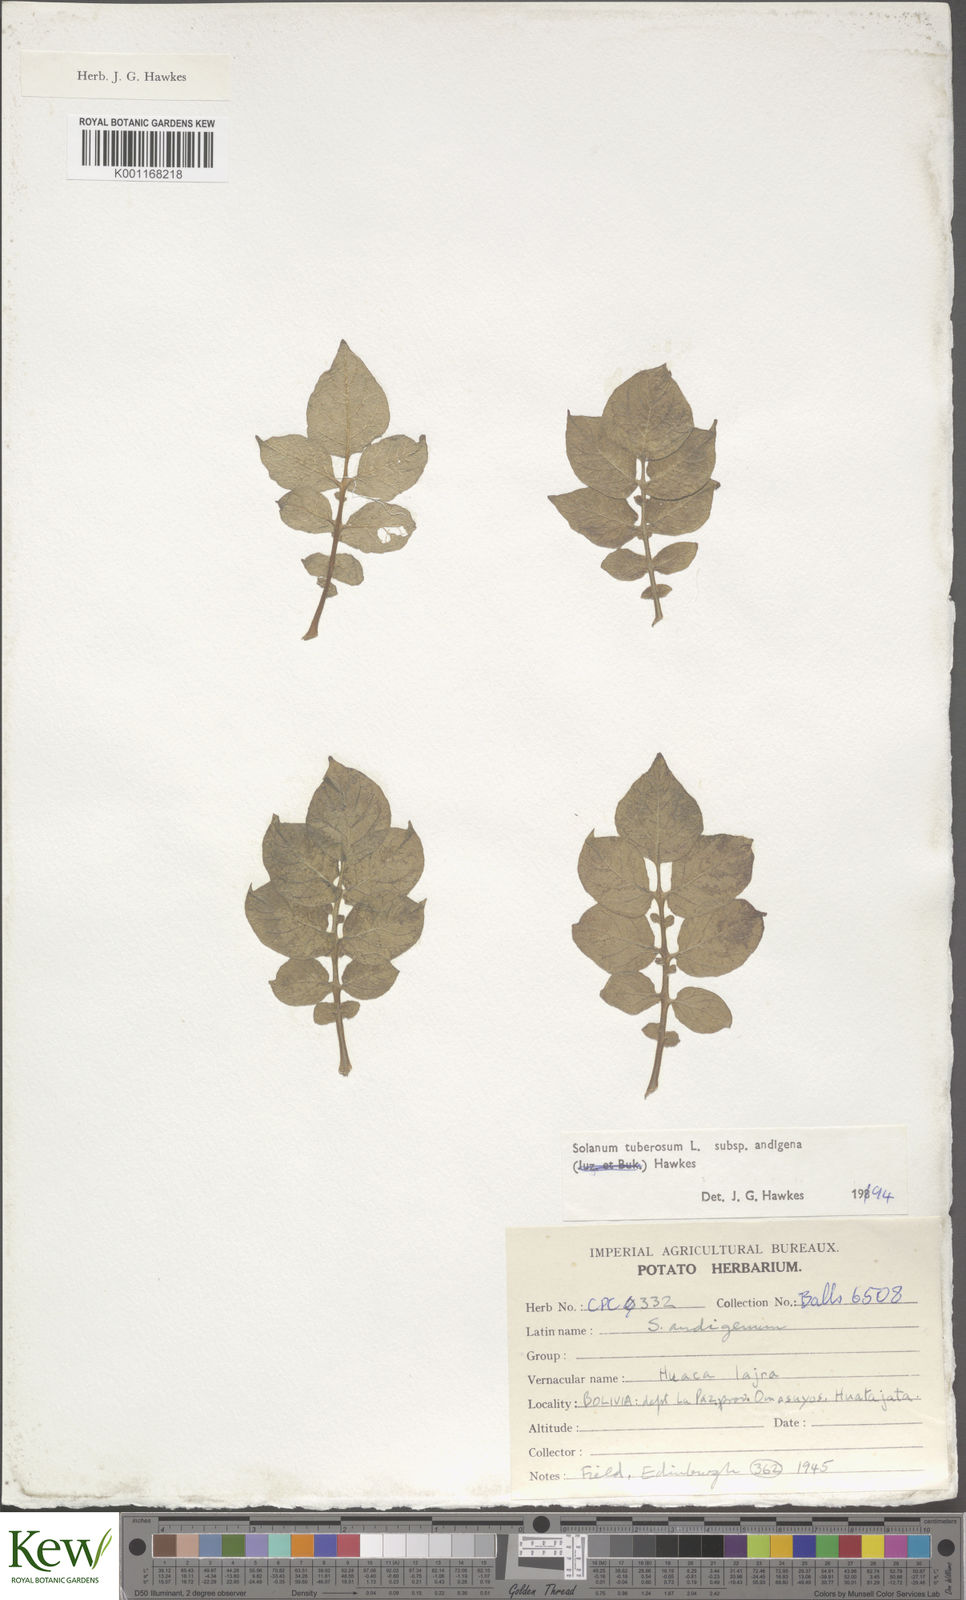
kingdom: Plantae
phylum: Tracheophyta
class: Magnoliopsida
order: Solanales
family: Solanaceae
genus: Solanum
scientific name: Solanum tuberosum
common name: Potato
